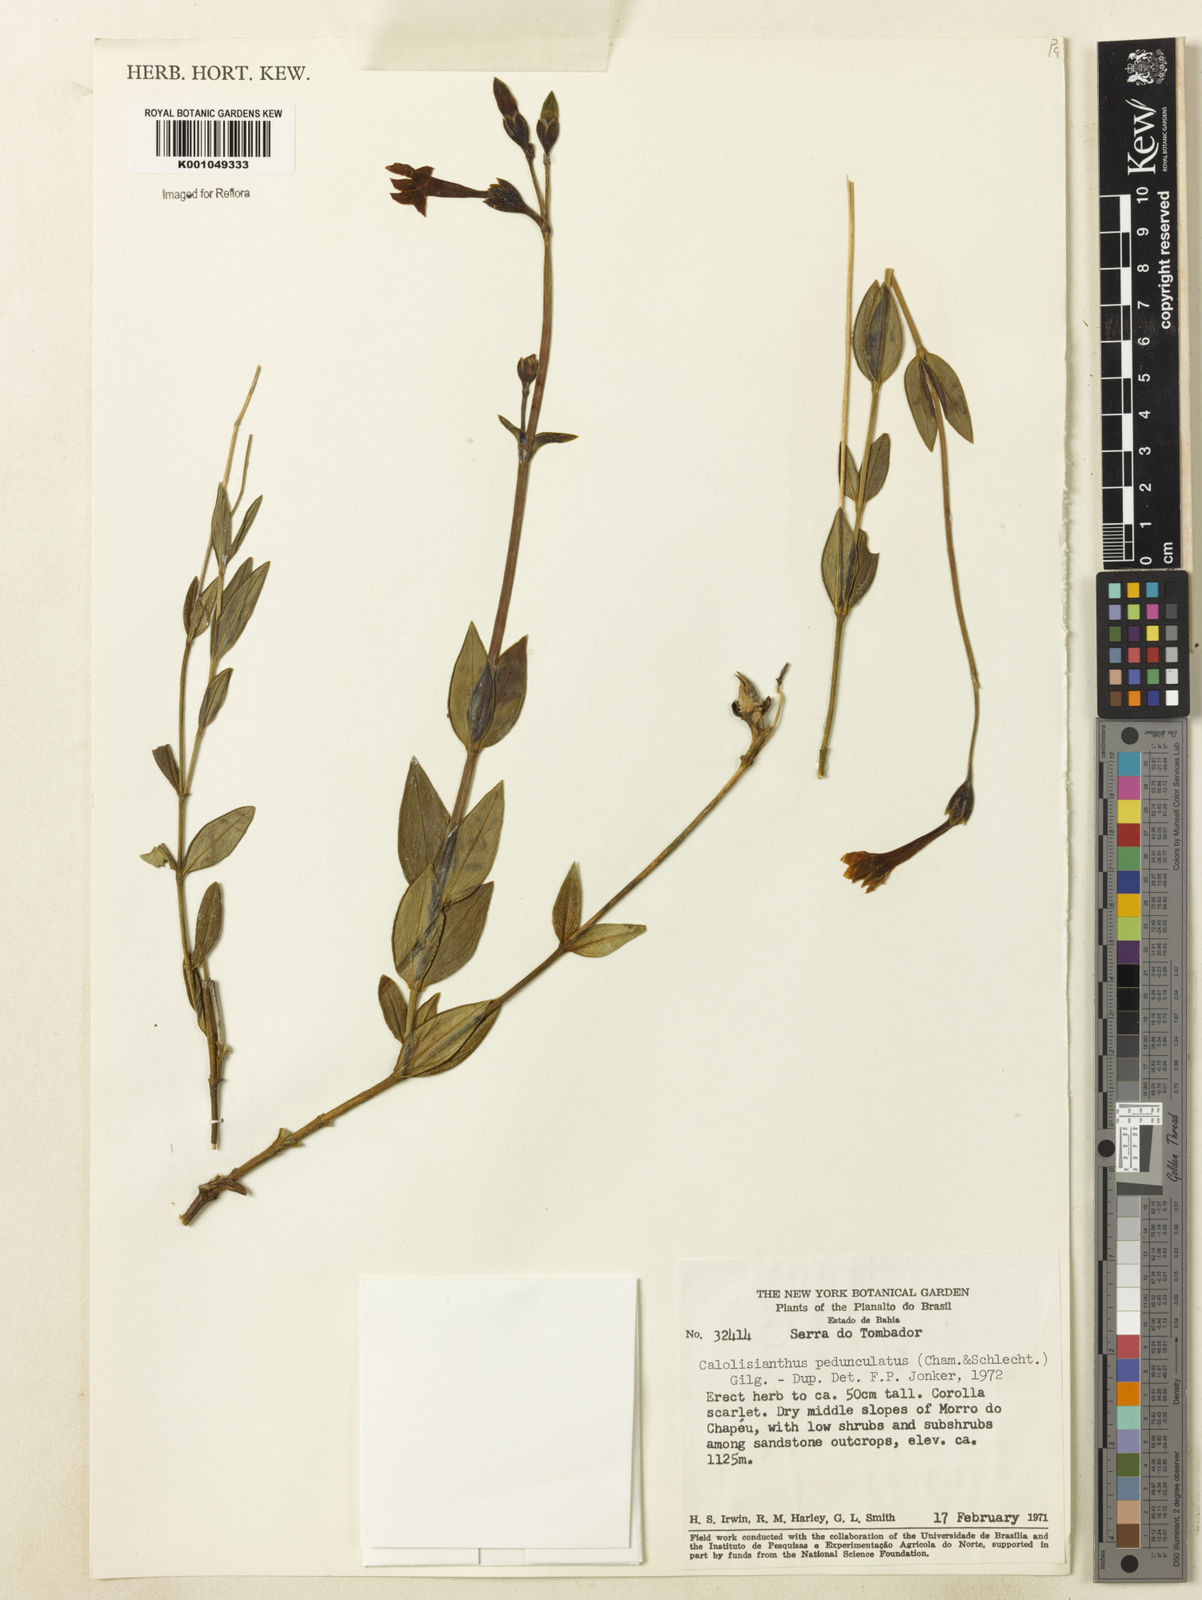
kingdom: Plantae
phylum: Tracheophyta
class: Magnoliopsida
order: Gentianales
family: Gentianaceae
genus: Calolisianthus
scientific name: Calolisianthus pedunculatus
